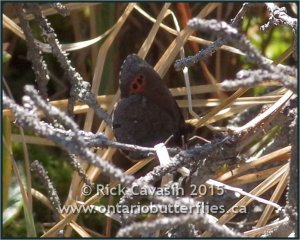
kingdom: Animalia
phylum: Arthropoda
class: Insecta
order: Lepidoptera
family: Nymphalidae
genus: Erebia
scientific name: Erebia disa
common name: Taiga Alpine
